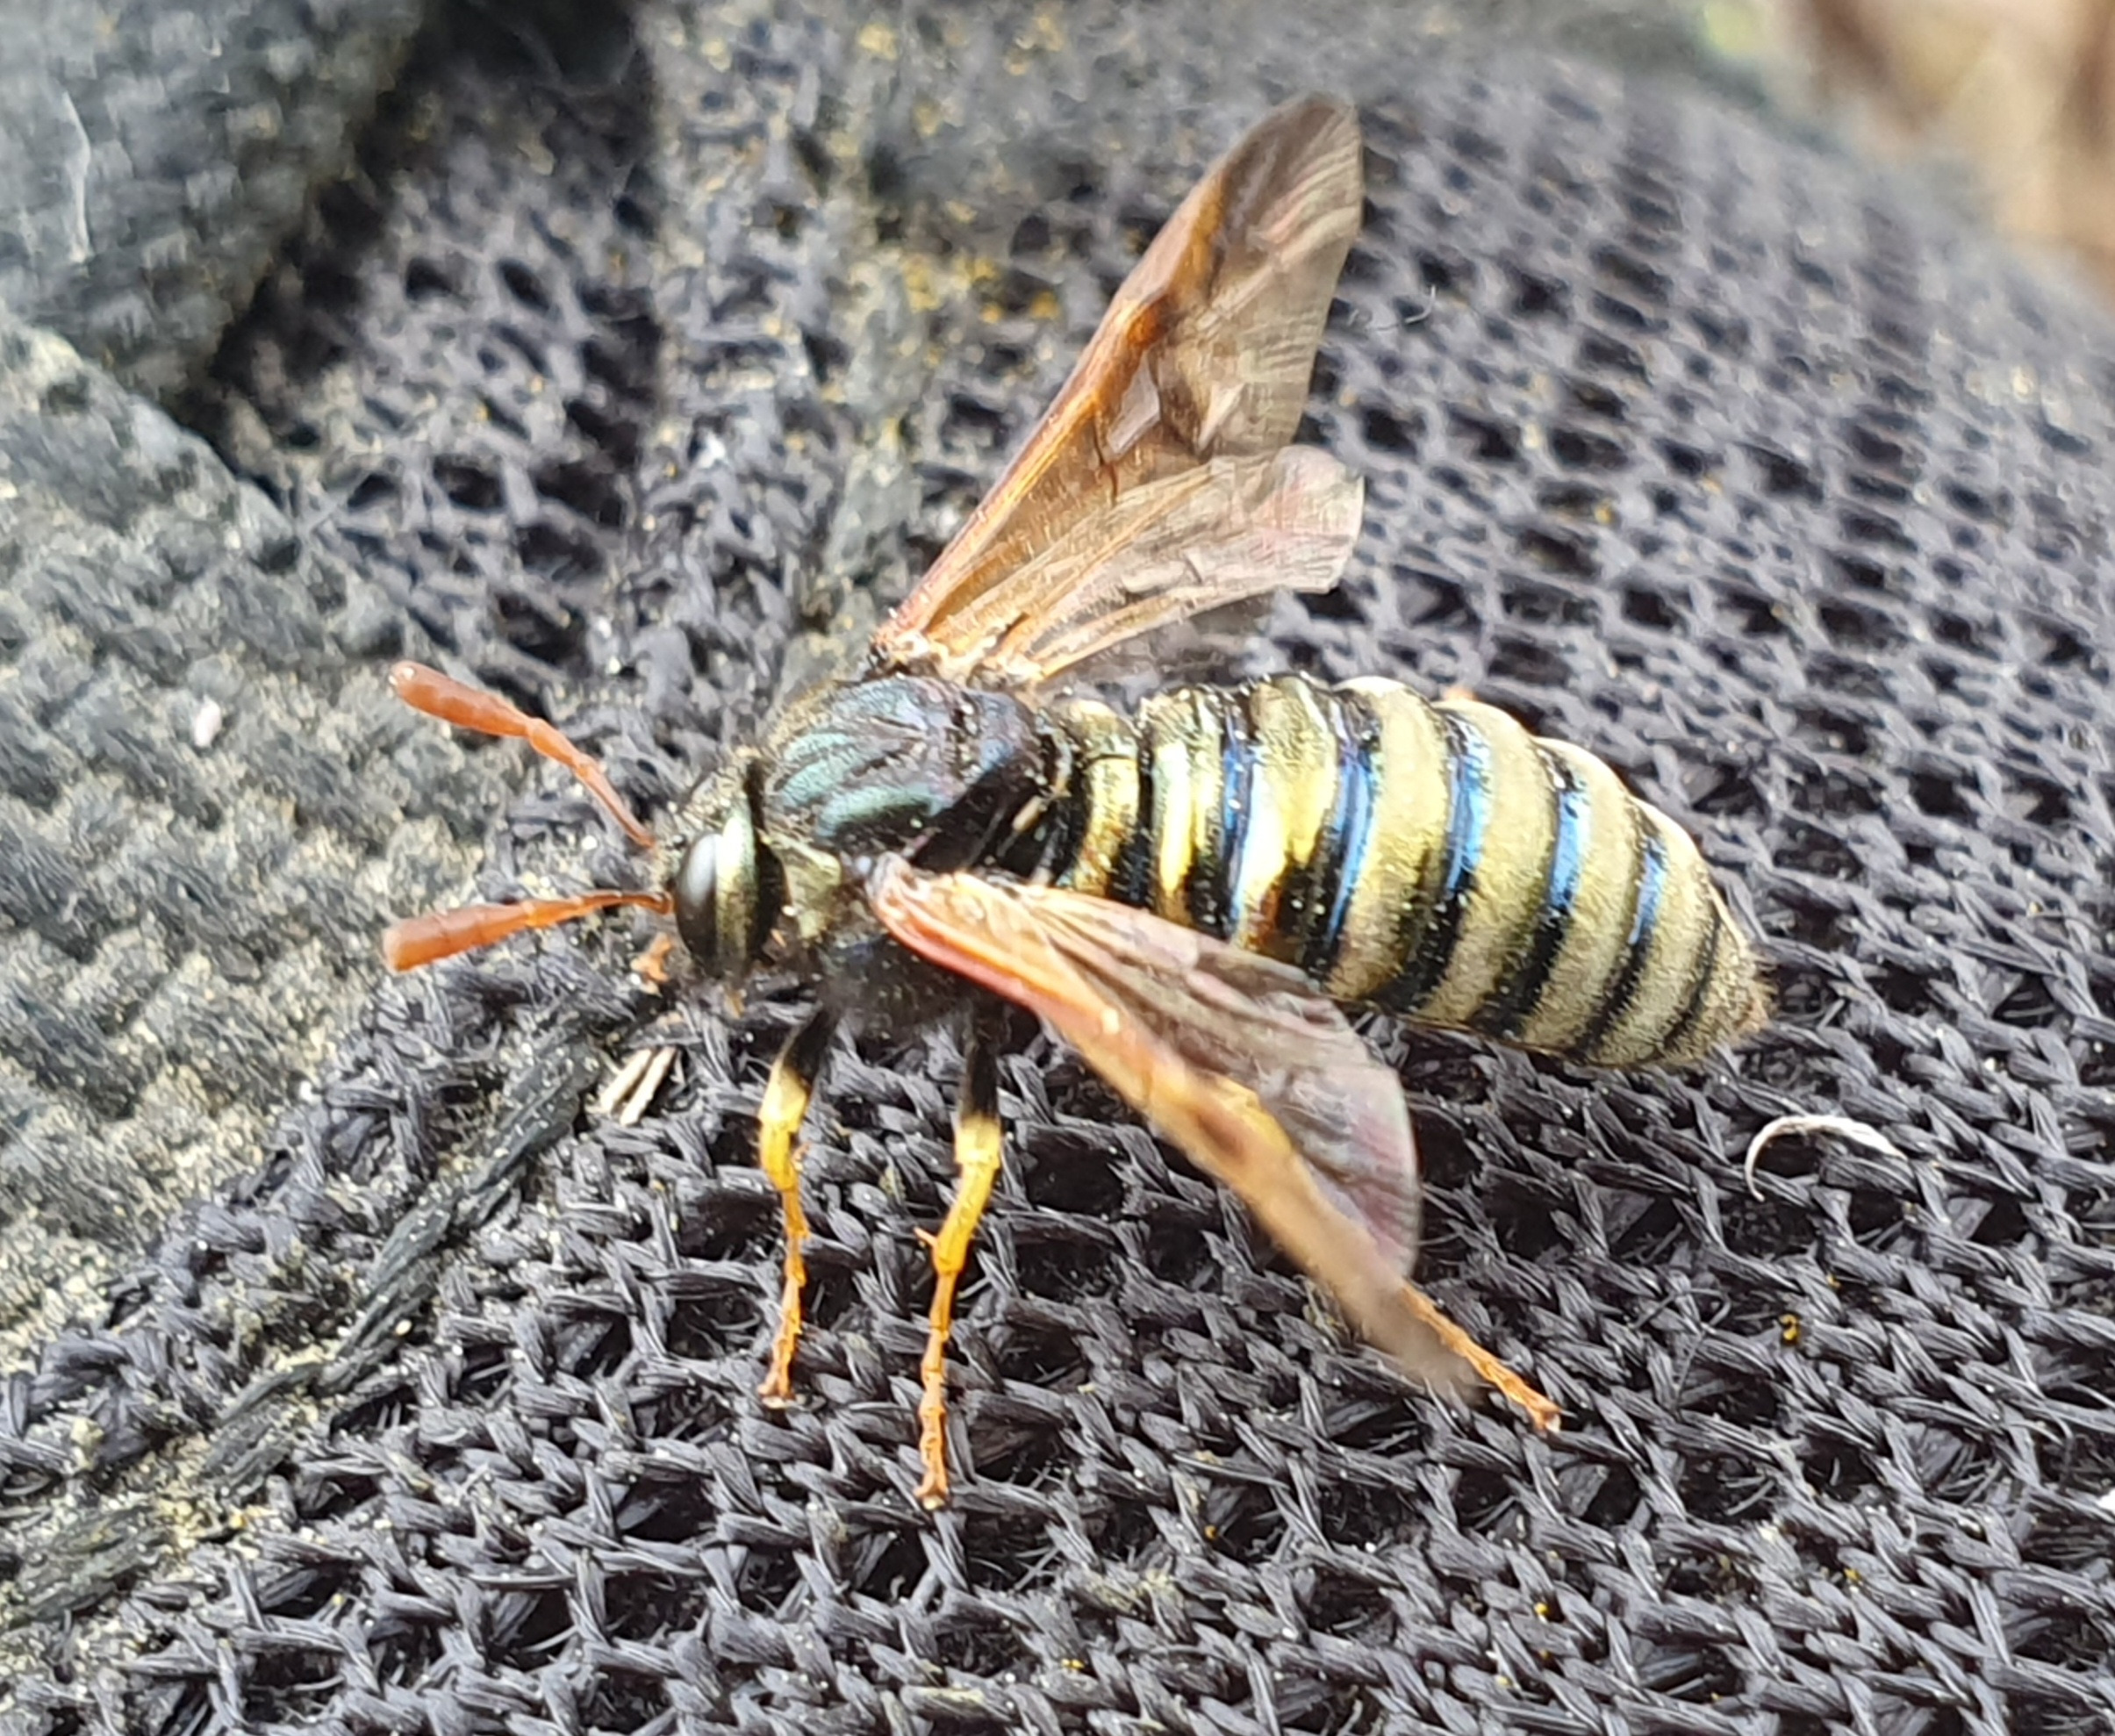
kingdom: Animalia
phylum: Arthropoda
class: Insecta
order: Hymenoptera
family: Cimbicidae
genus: Abia
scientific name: Abia sericea
